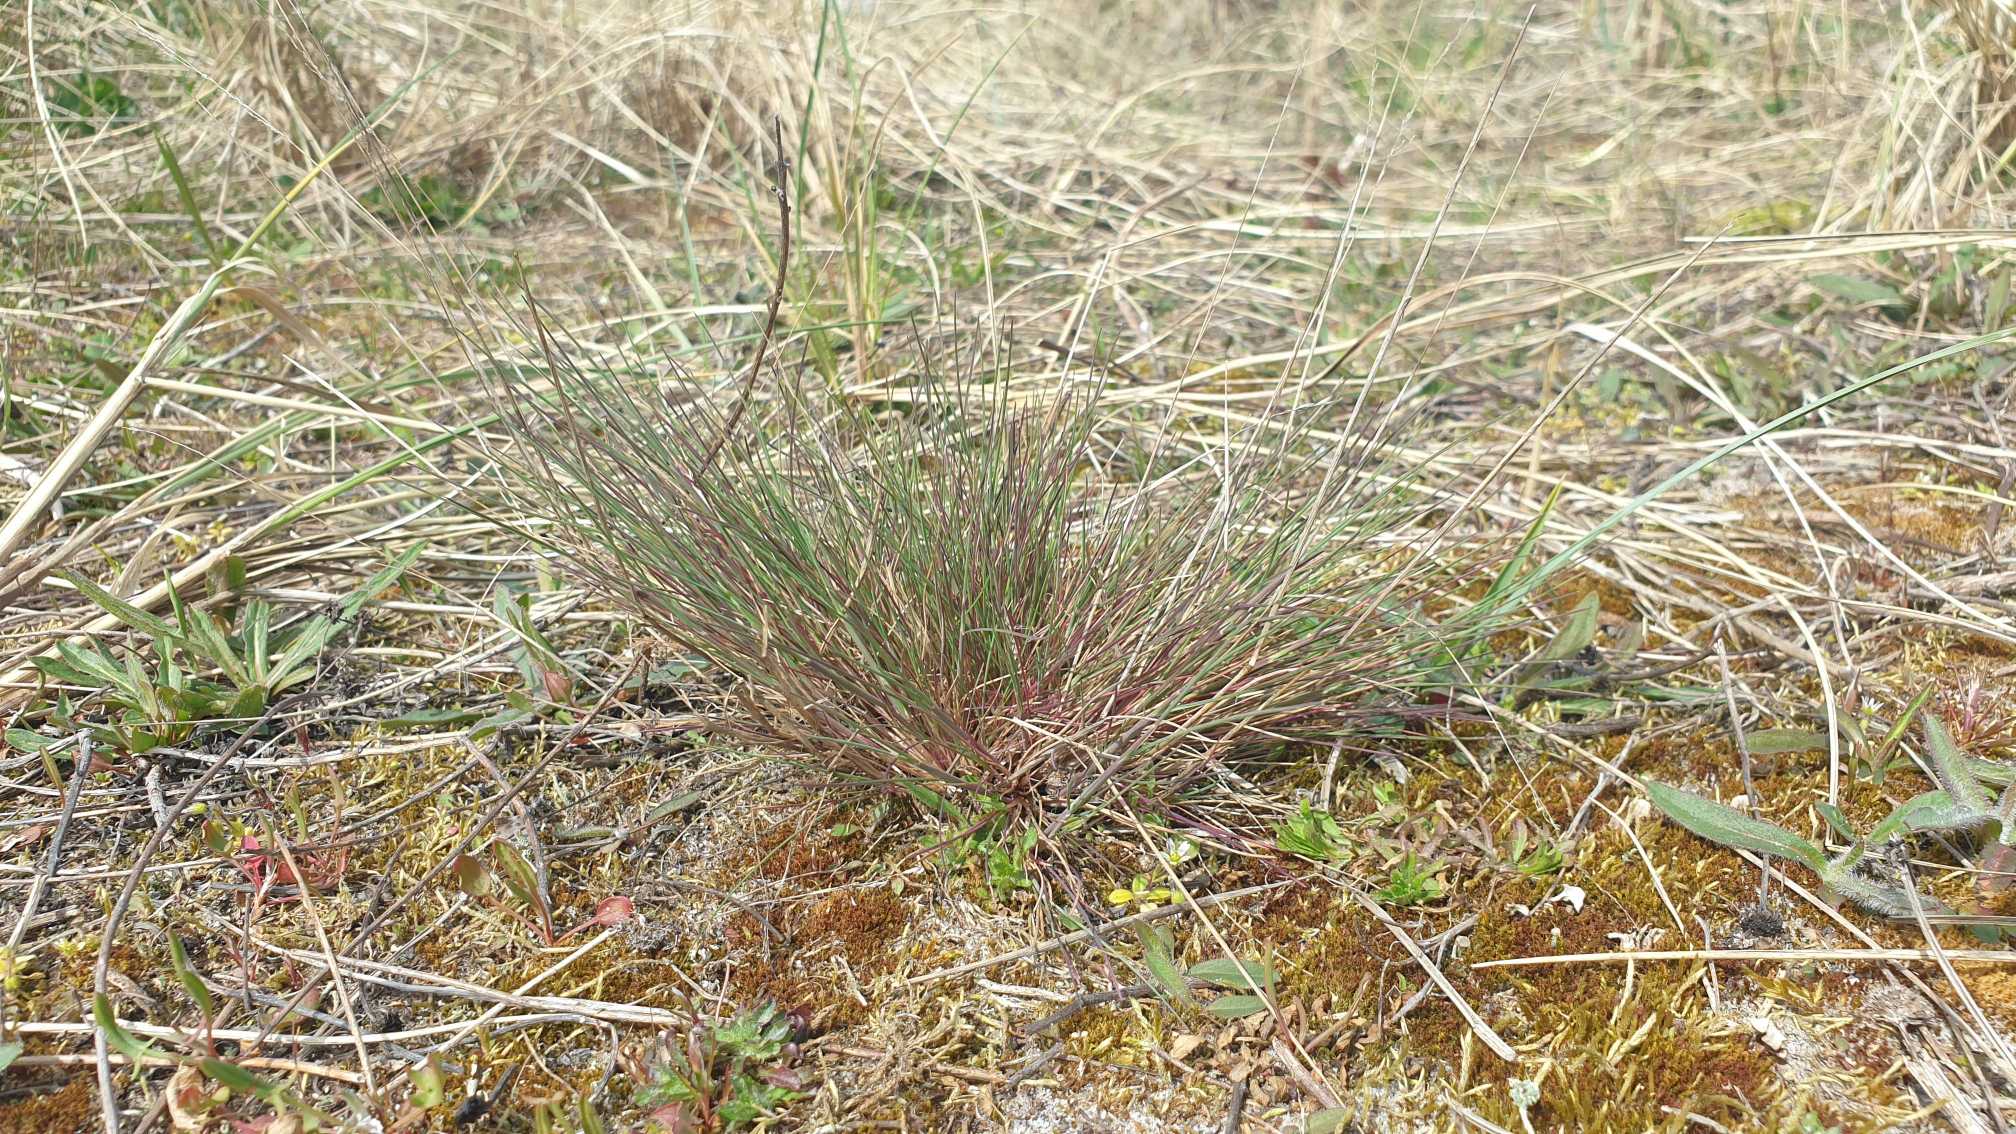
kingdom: Plantae
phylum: Tracheophyta
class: Liliopsida
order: Poales
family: Poaceae
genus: Corynephorus
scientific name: Corynephorus canescens
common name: Sandskæg
